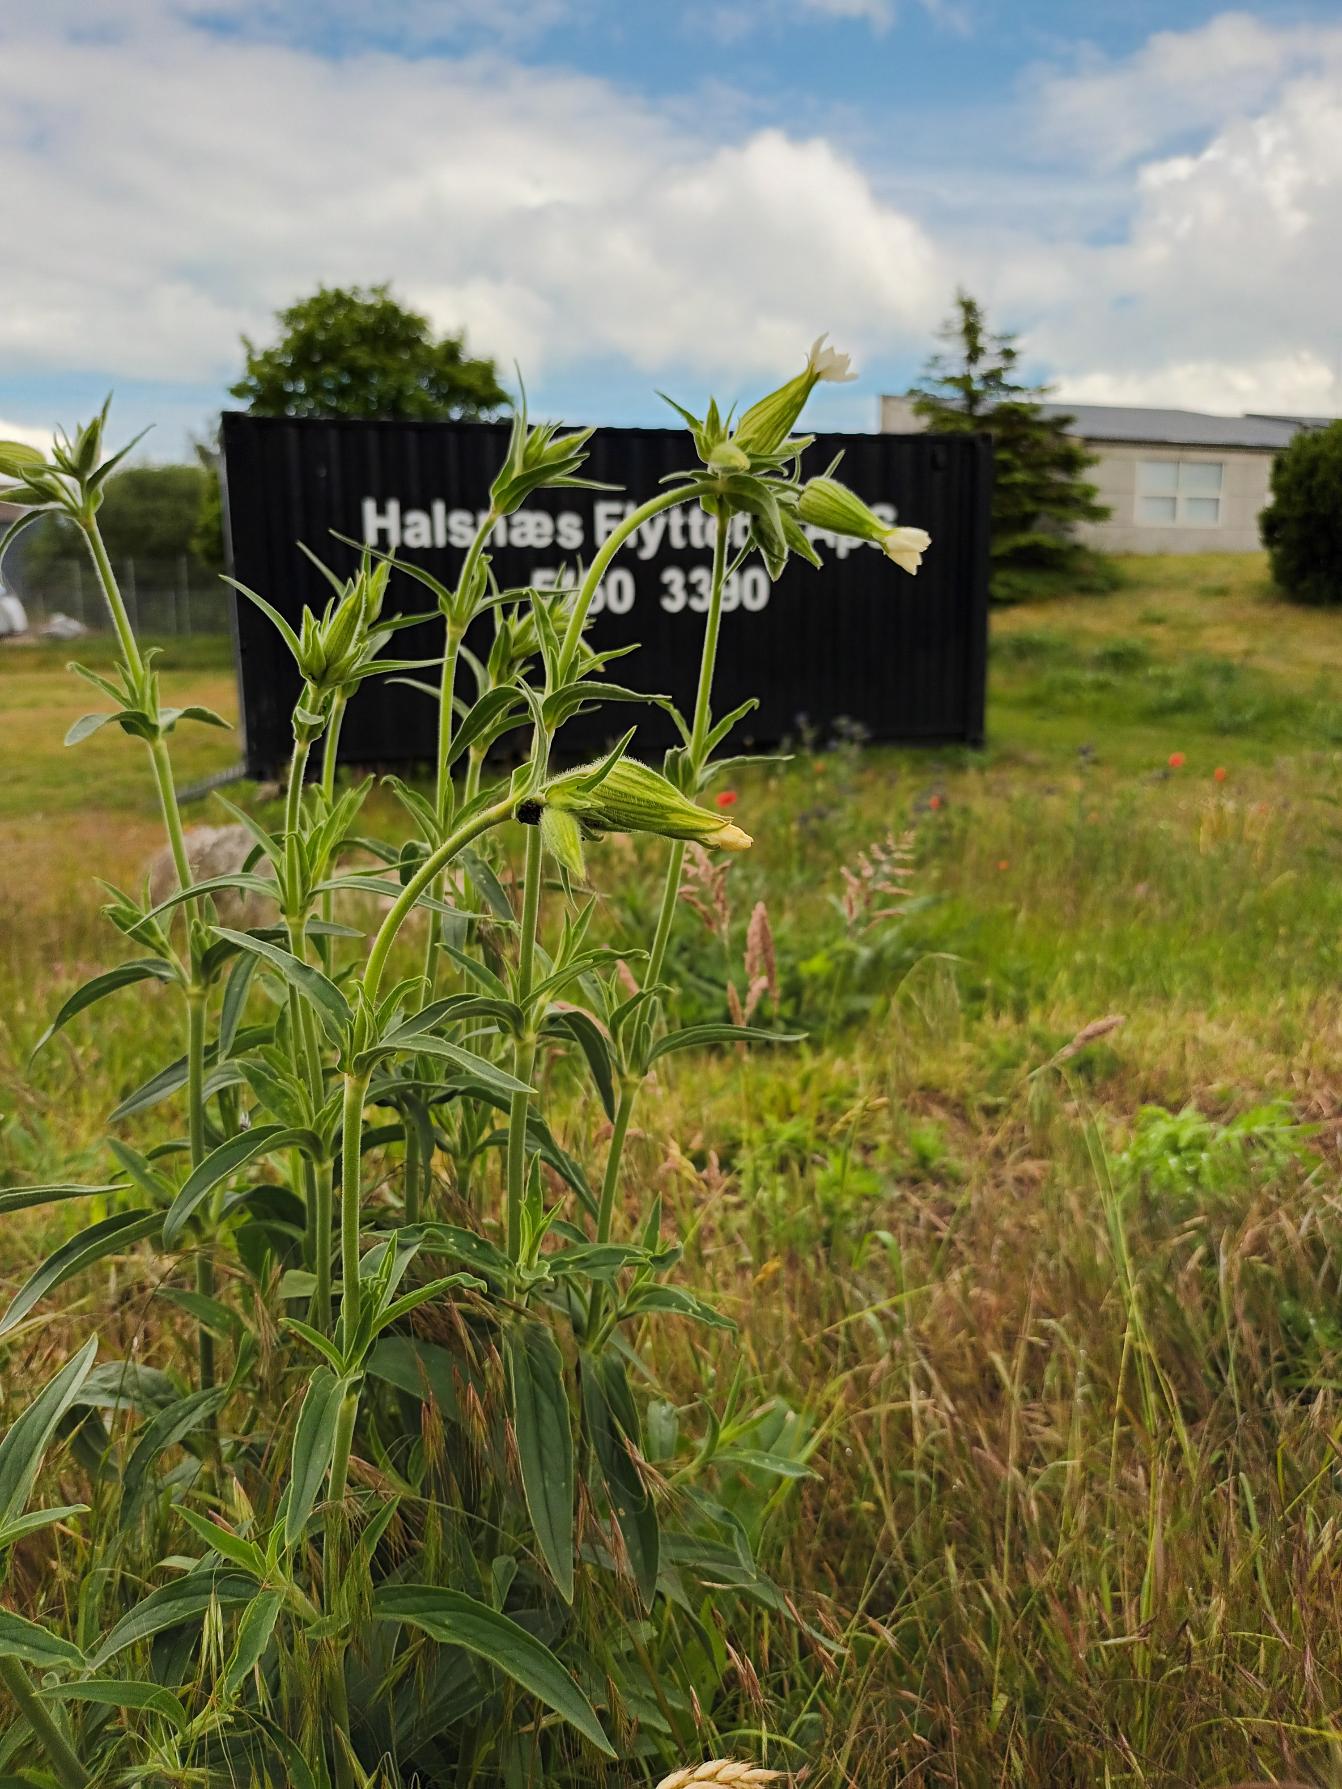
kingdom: Plantae
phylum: Tracheophyta
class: Magnoliopsida
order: Caryophyllales
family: Caryophyllaceae
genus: Silene
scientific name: Silene latifolia
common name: Aftenpragtstjerne
